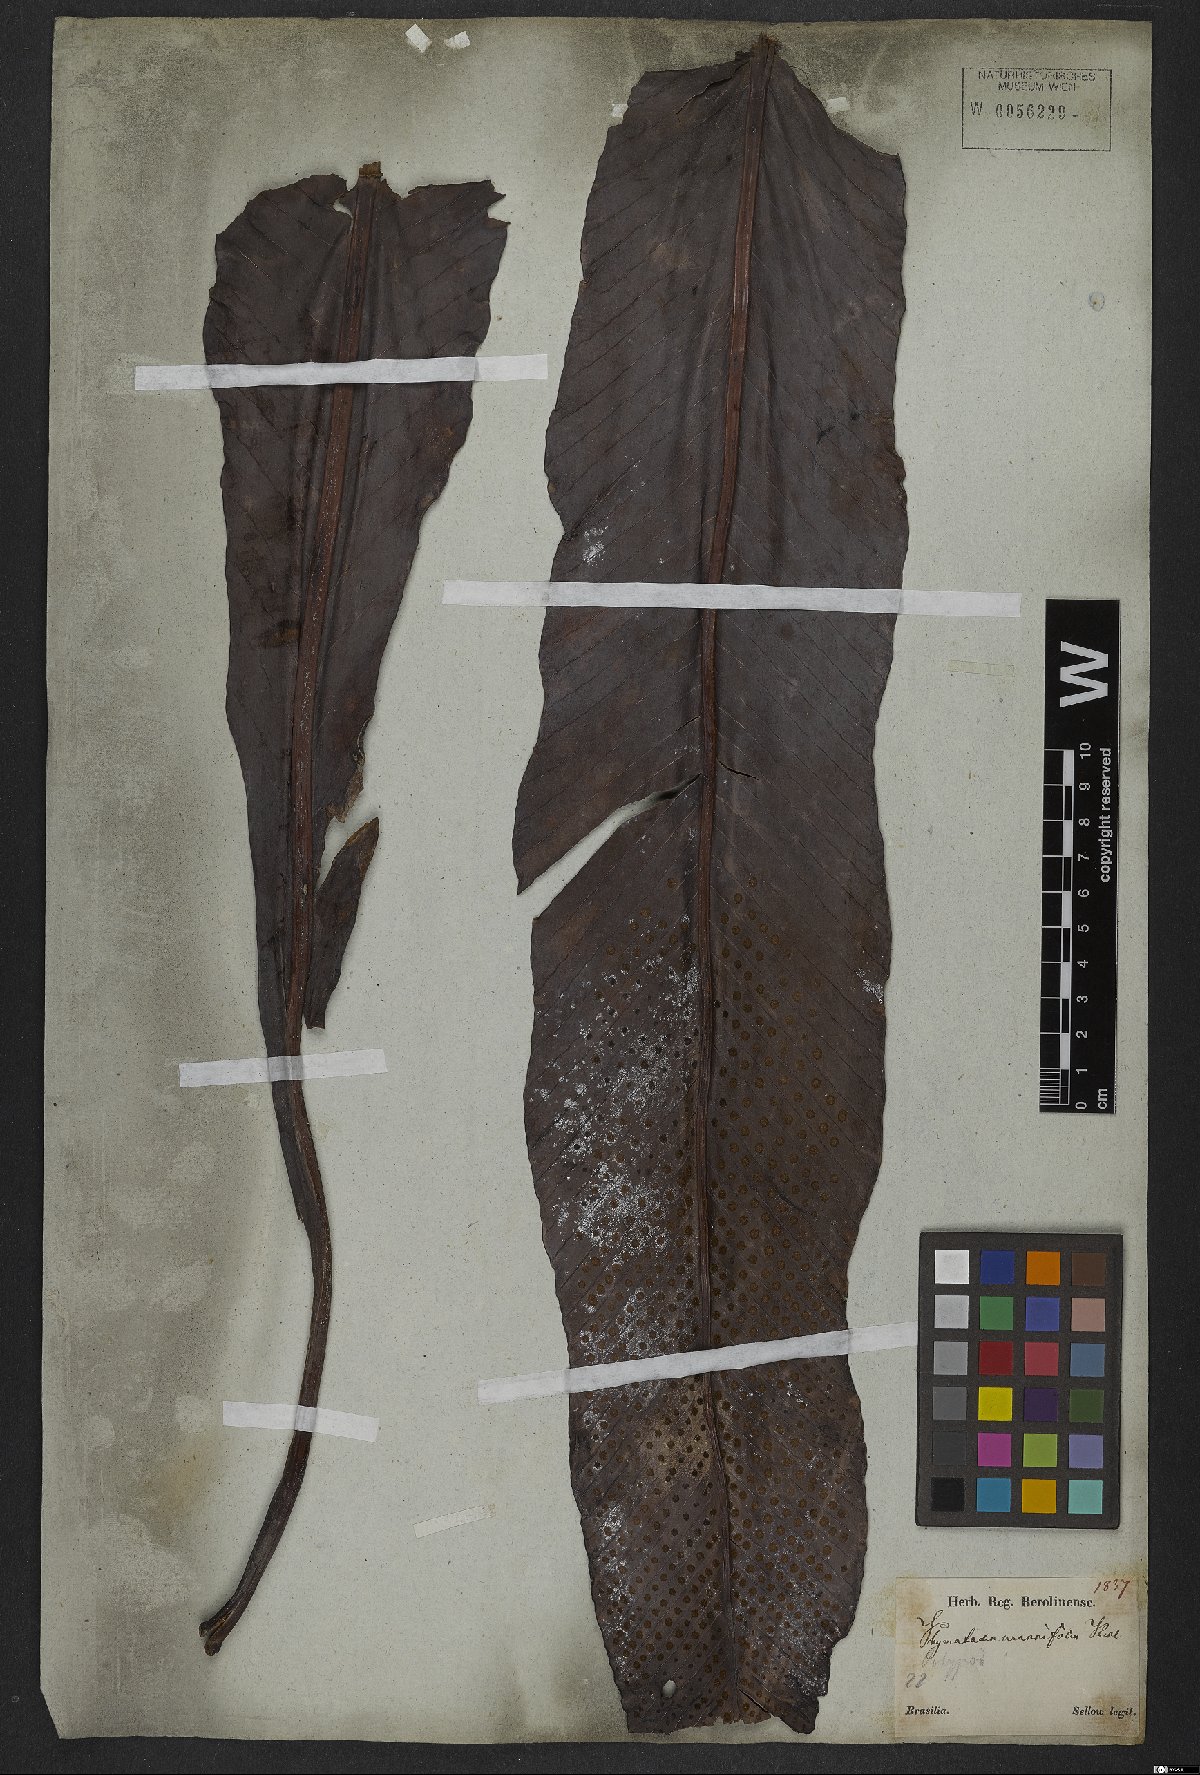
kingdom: Plantae
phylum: Tracheophyta
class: Polypodiopsida
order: Polypodiales
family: Polypodiaceae
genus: Niphidium
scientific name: Niphidium crassifolium
